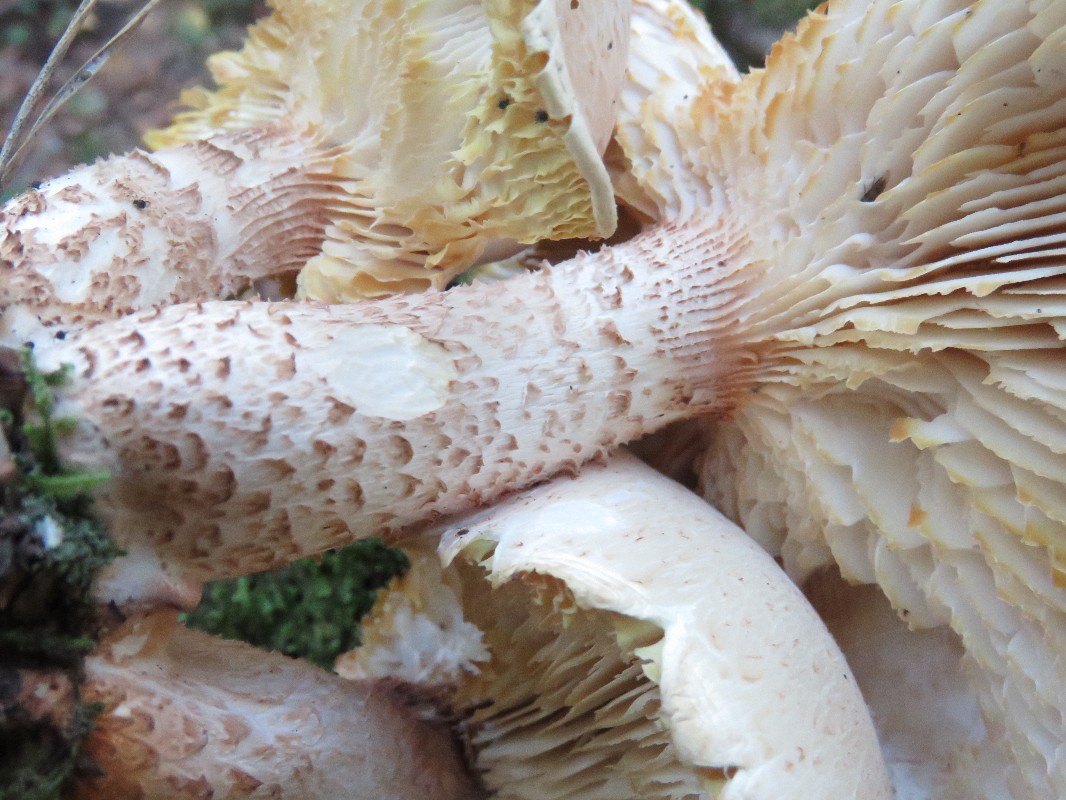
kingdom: Fungi
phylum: Basidiomycota
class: Agaricomycetes
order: Gloeophyllales
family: Gloeophyllaceae
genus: Neolentinus
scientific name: Neolentinus lepideus
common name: skællet sejhat
